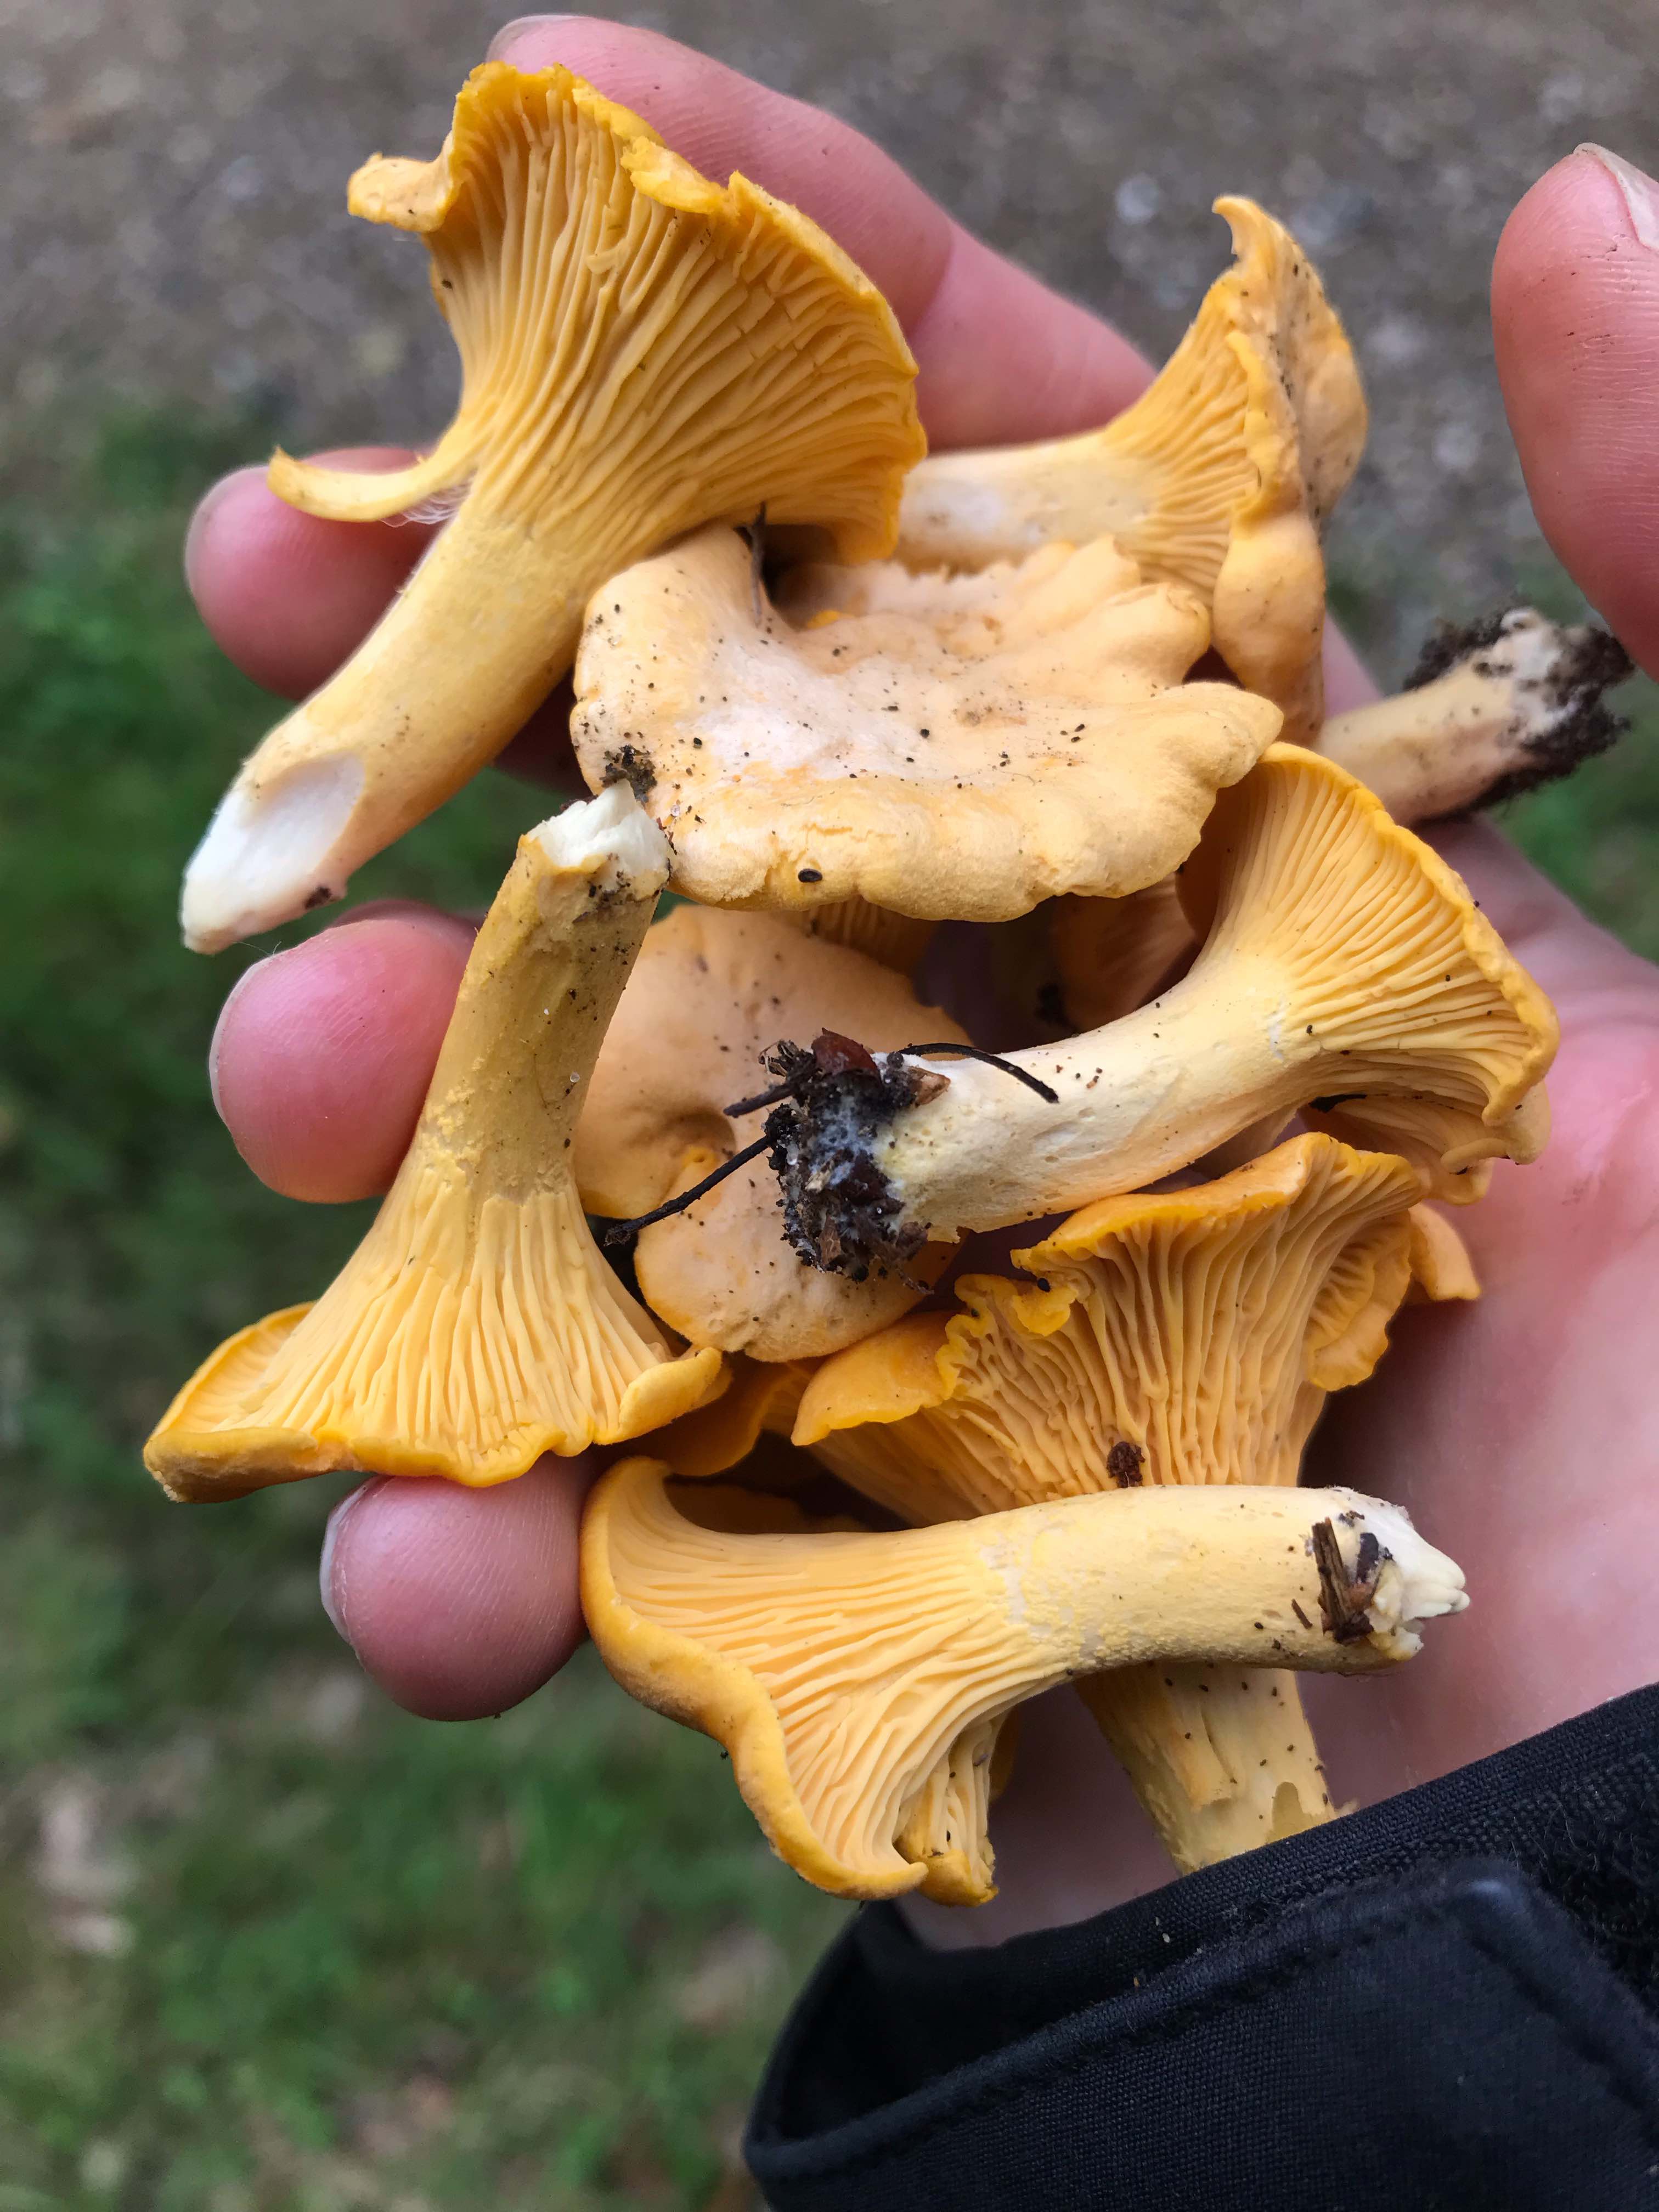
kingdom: Fungi
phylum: Basidiomycota
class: Agaricomycetes
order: Cantharellales
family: Hydnaceae
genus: Cantharellus
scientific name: Cantharellus cibarius
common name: almindelig kantarel
